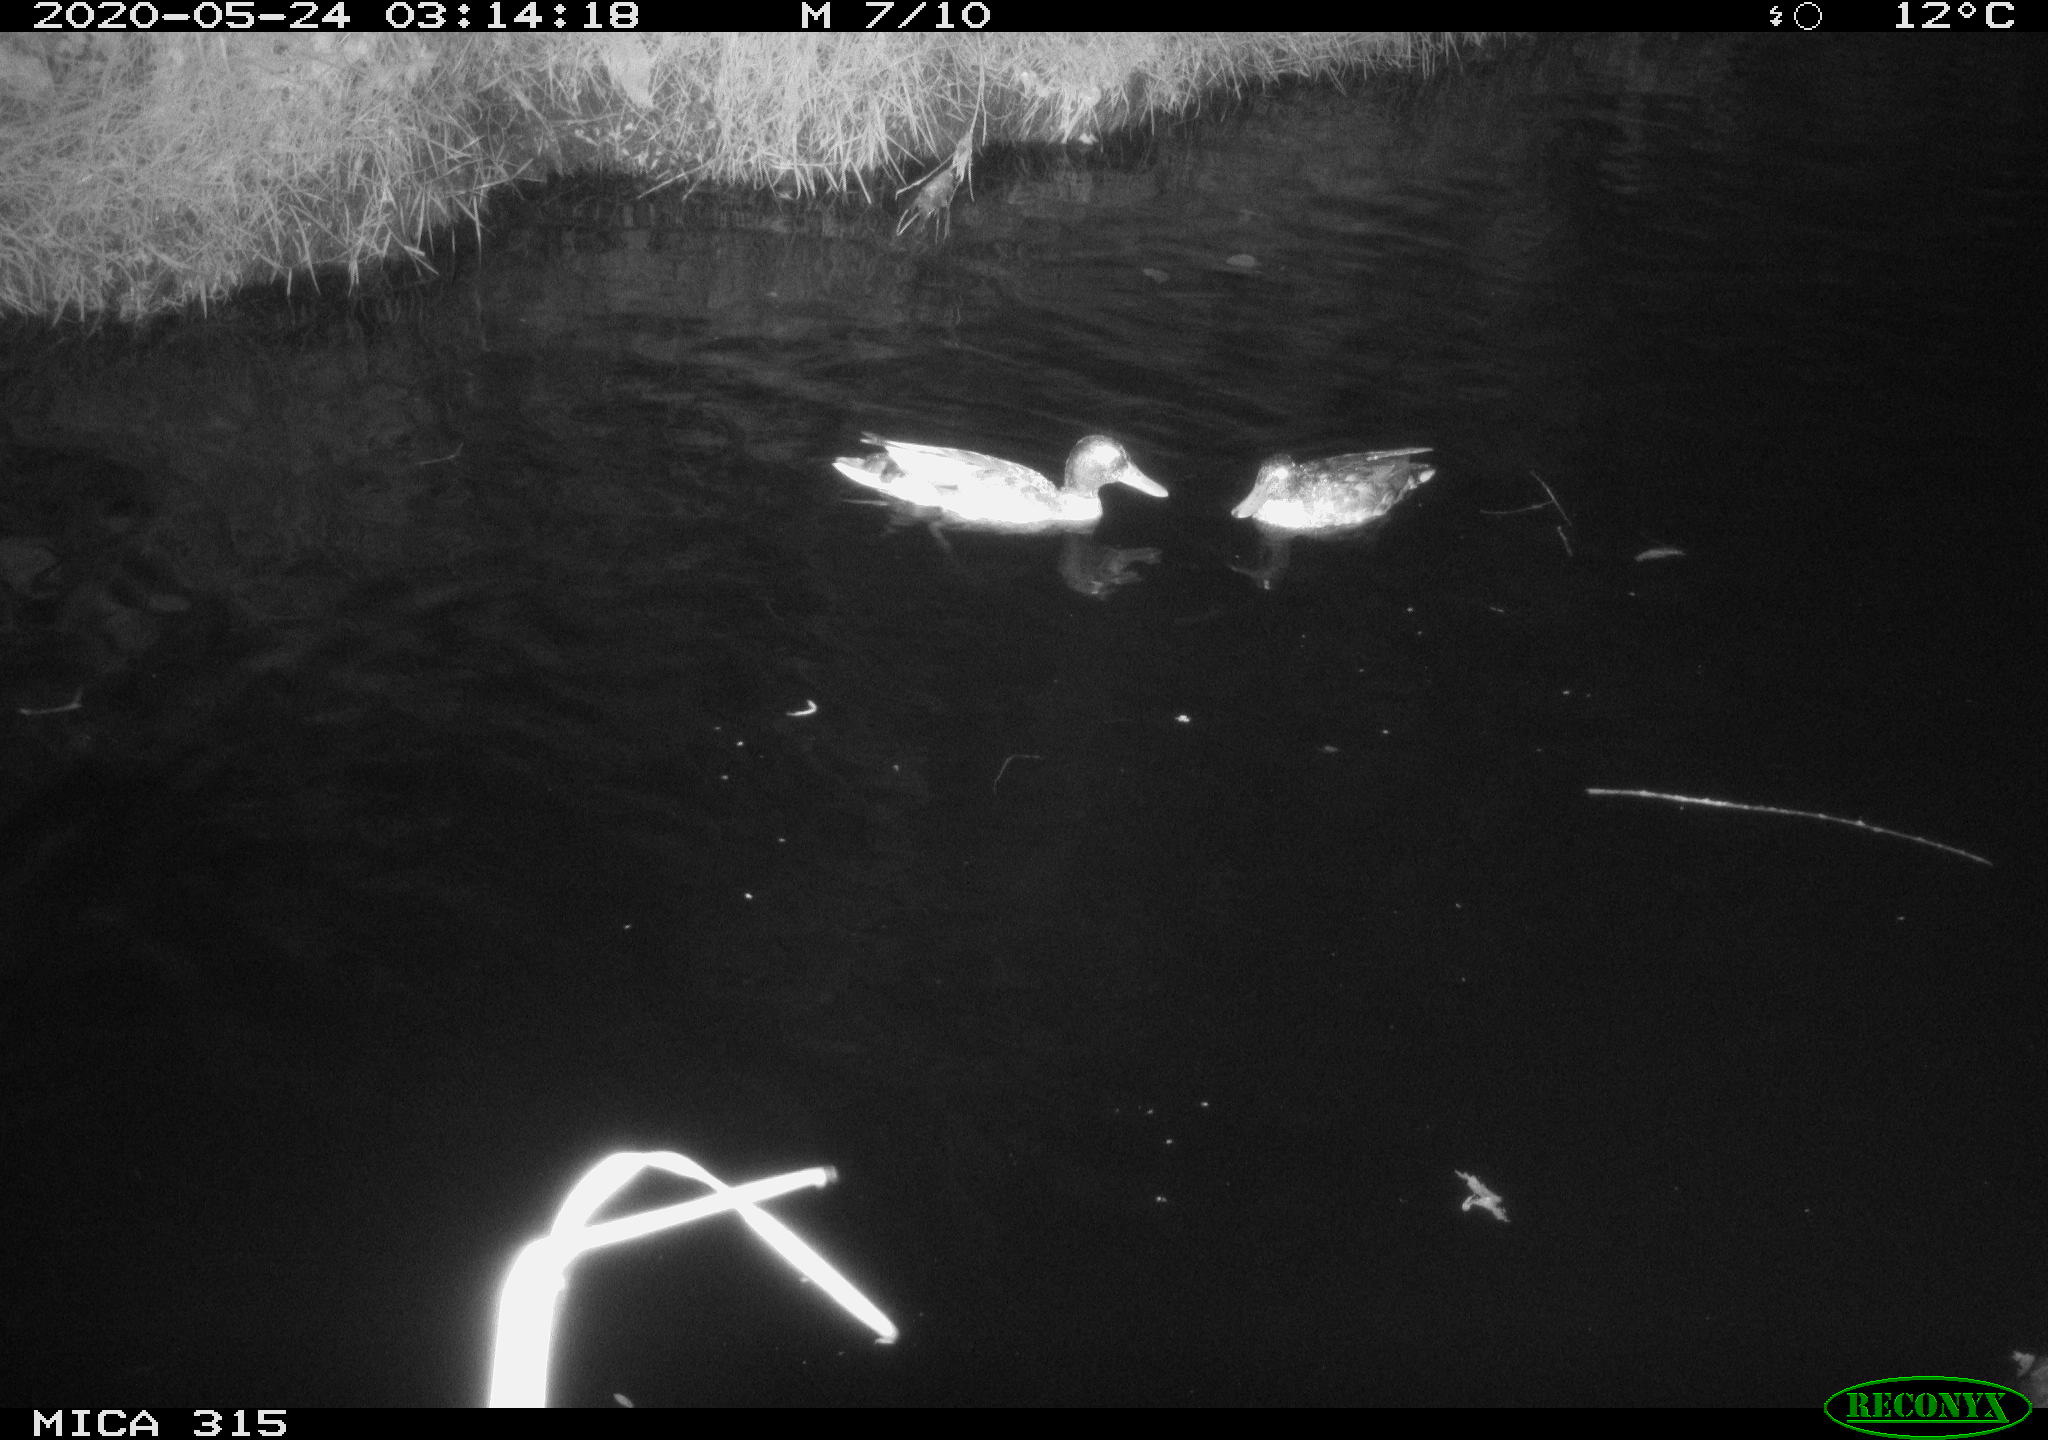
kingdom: Animalia
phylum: Chordata
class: Aves
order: Anseriformes
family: Anatidae
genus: Anas
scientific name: Anas platyrhynchos
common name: Mallard
